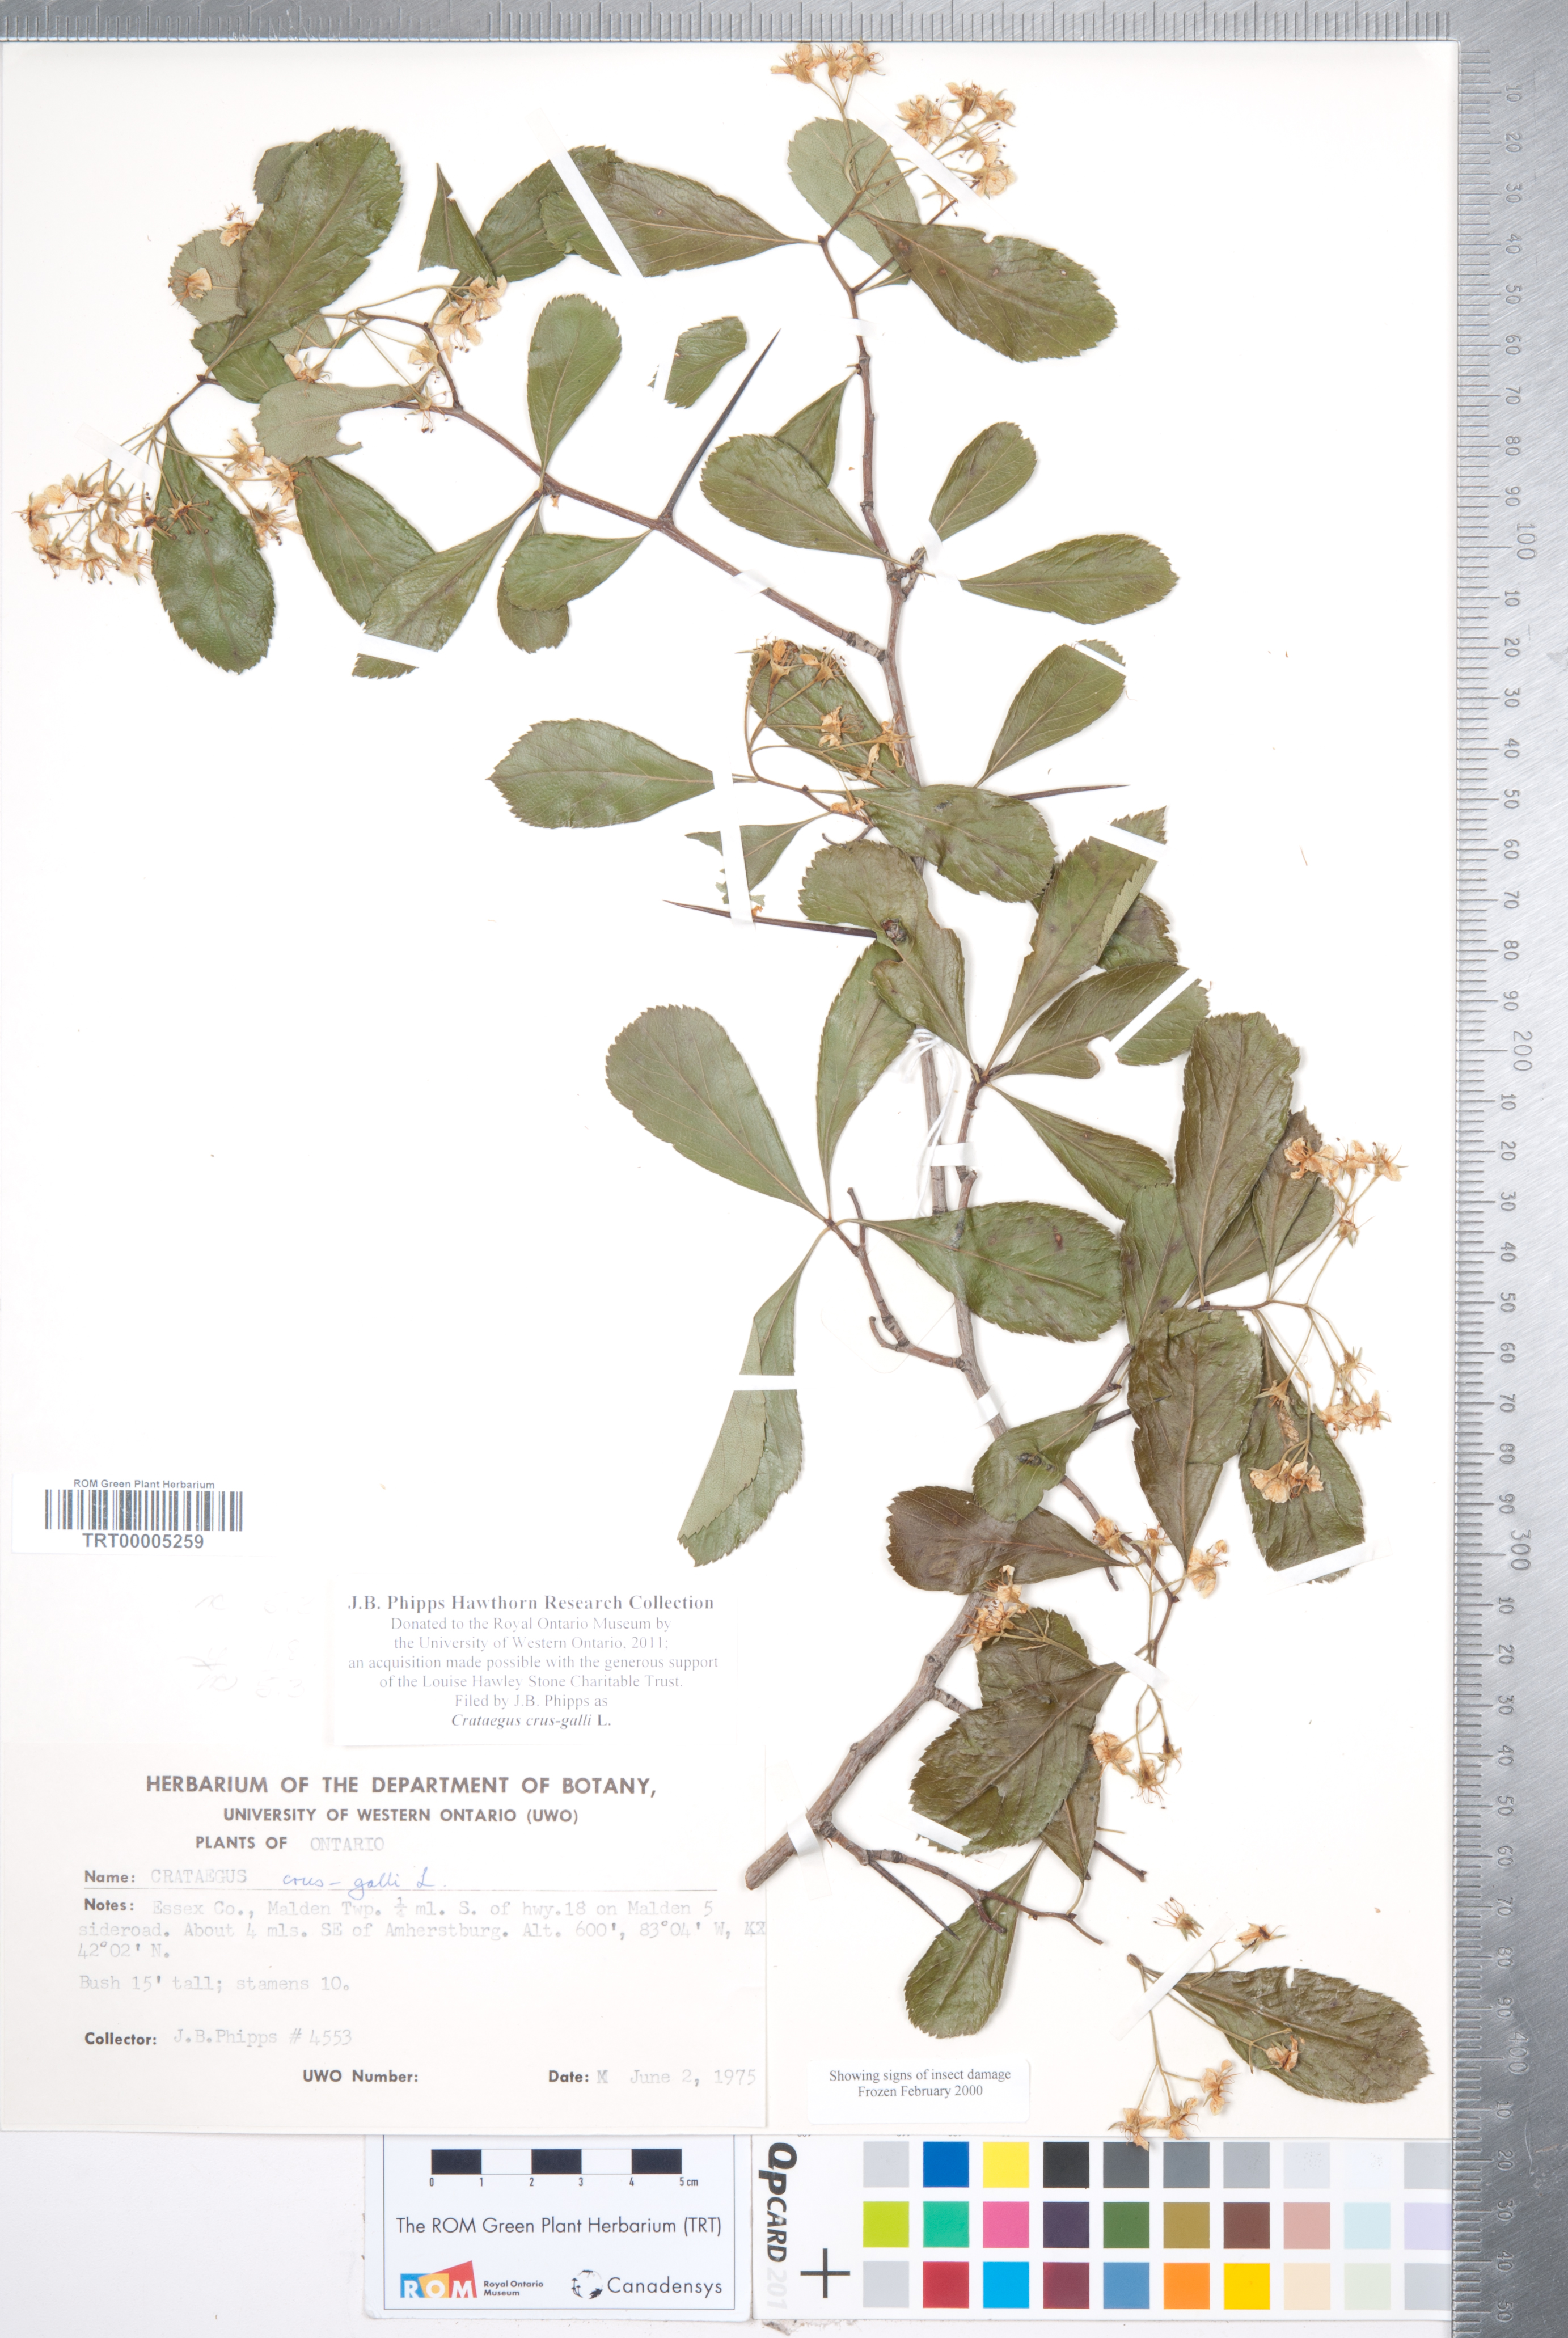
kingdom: Plantae
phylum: Tracheophyta
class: Magnoliopsida
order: Rosales
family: Rosaceae
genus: Crataegus
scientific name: Crataegus crus-galli
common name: Cockspurthorn
